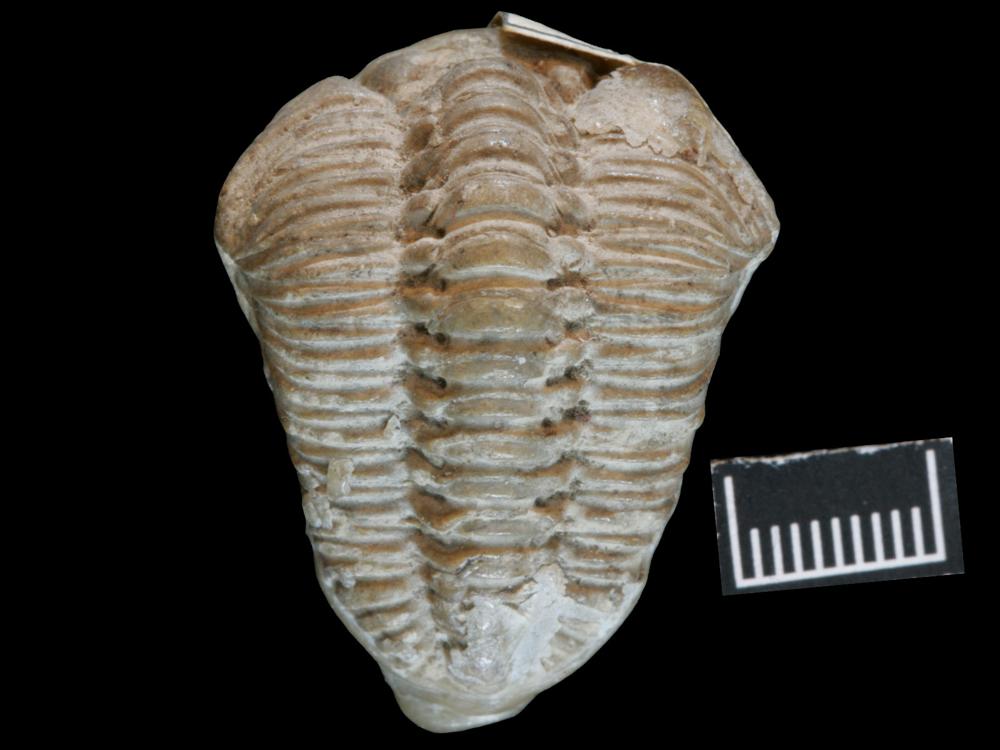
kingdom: Animalia
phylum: Arthropoda
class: Trilobita
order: Phacopida
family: Pterygometopidae
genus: Chasmops
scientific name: Chasmops odini
